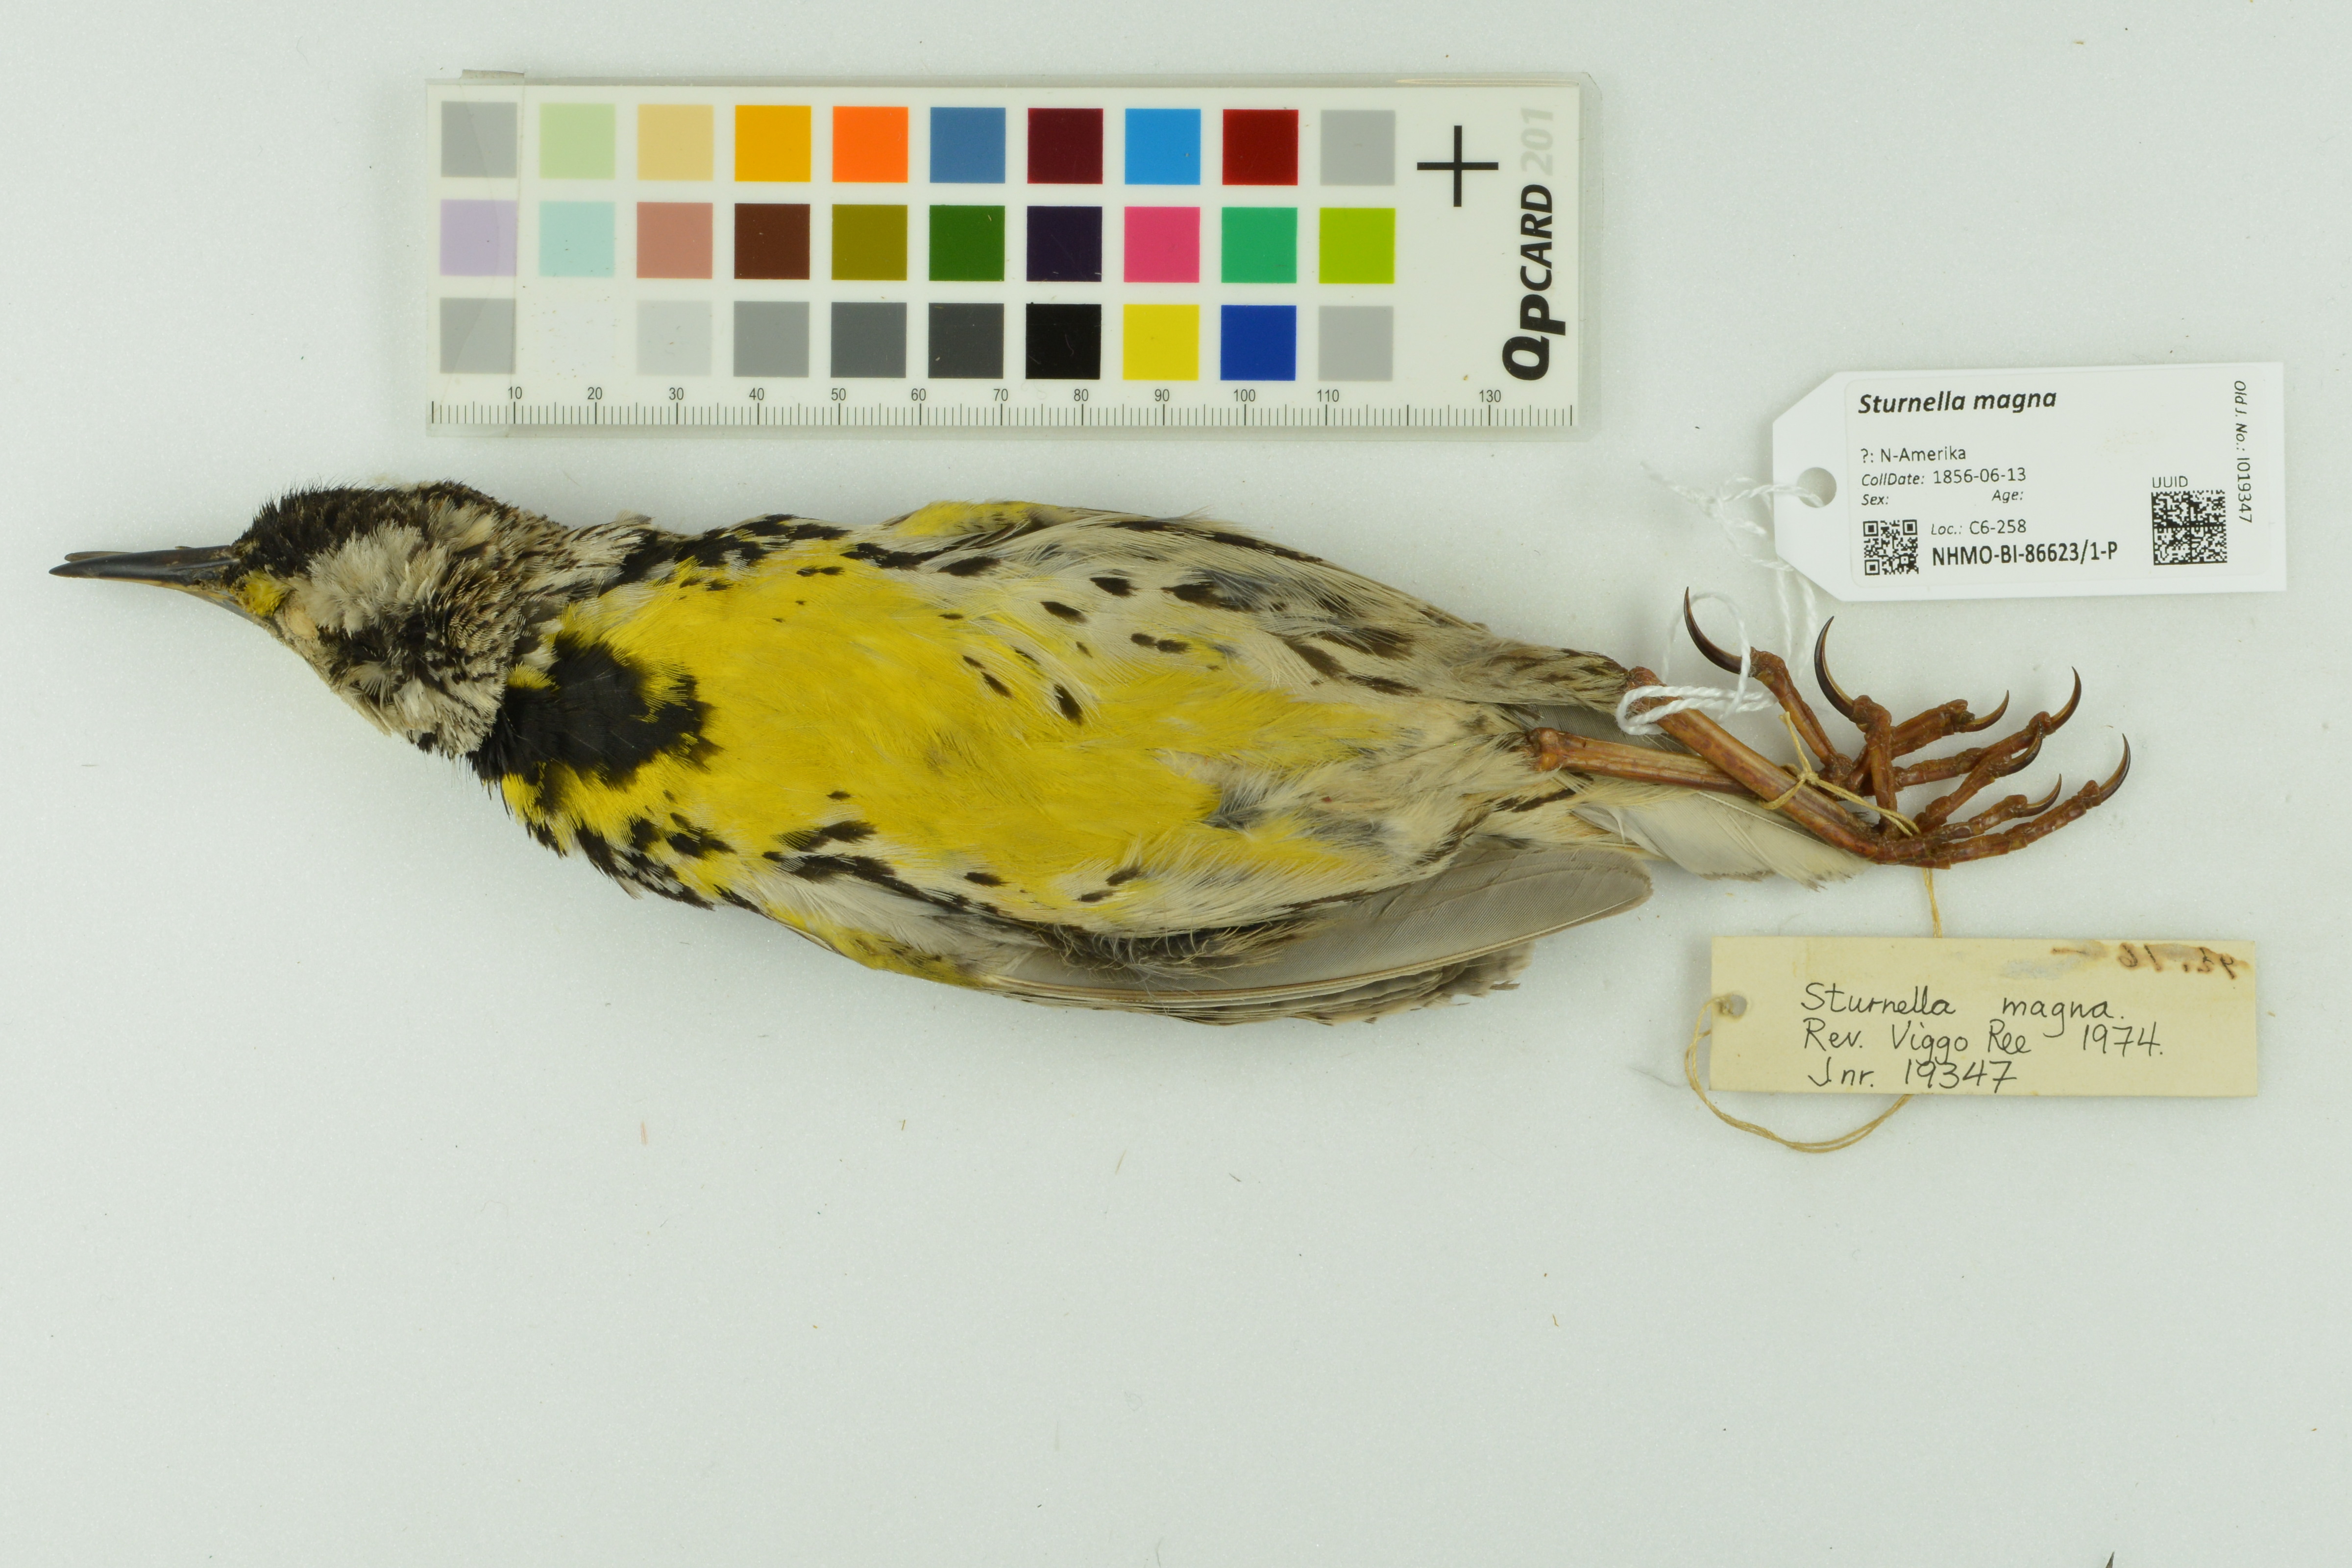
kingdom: Animalia
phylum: Chordata
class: Aves
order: Passeriformes
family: Icteridae
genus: Sturnella
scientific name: Sturnella magna
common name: Eastern meadowlark
